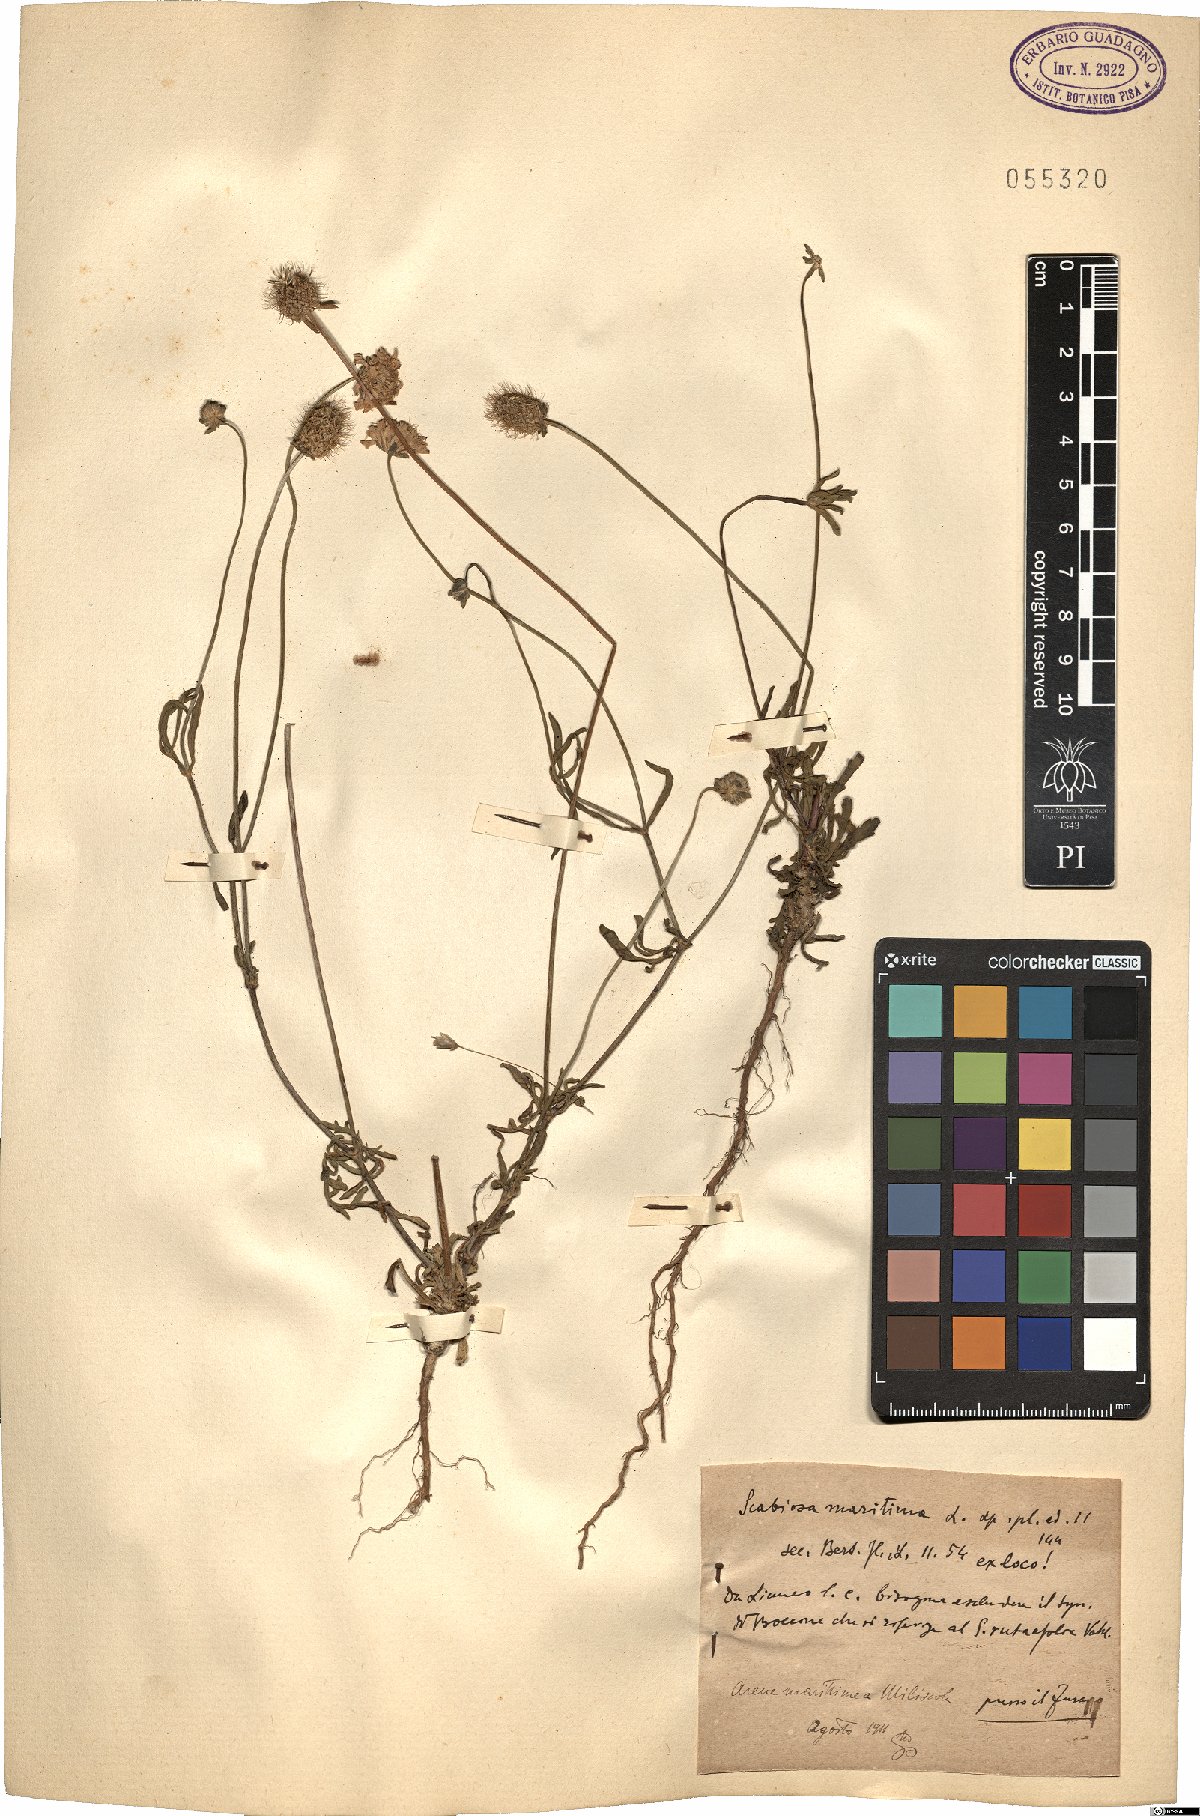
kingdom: Plantae
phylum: Tracheophyta
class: Magnoliopsida
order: Dipsacales
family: Caprifoliaceae
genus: Sixalix
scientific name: Sixalix maritima
